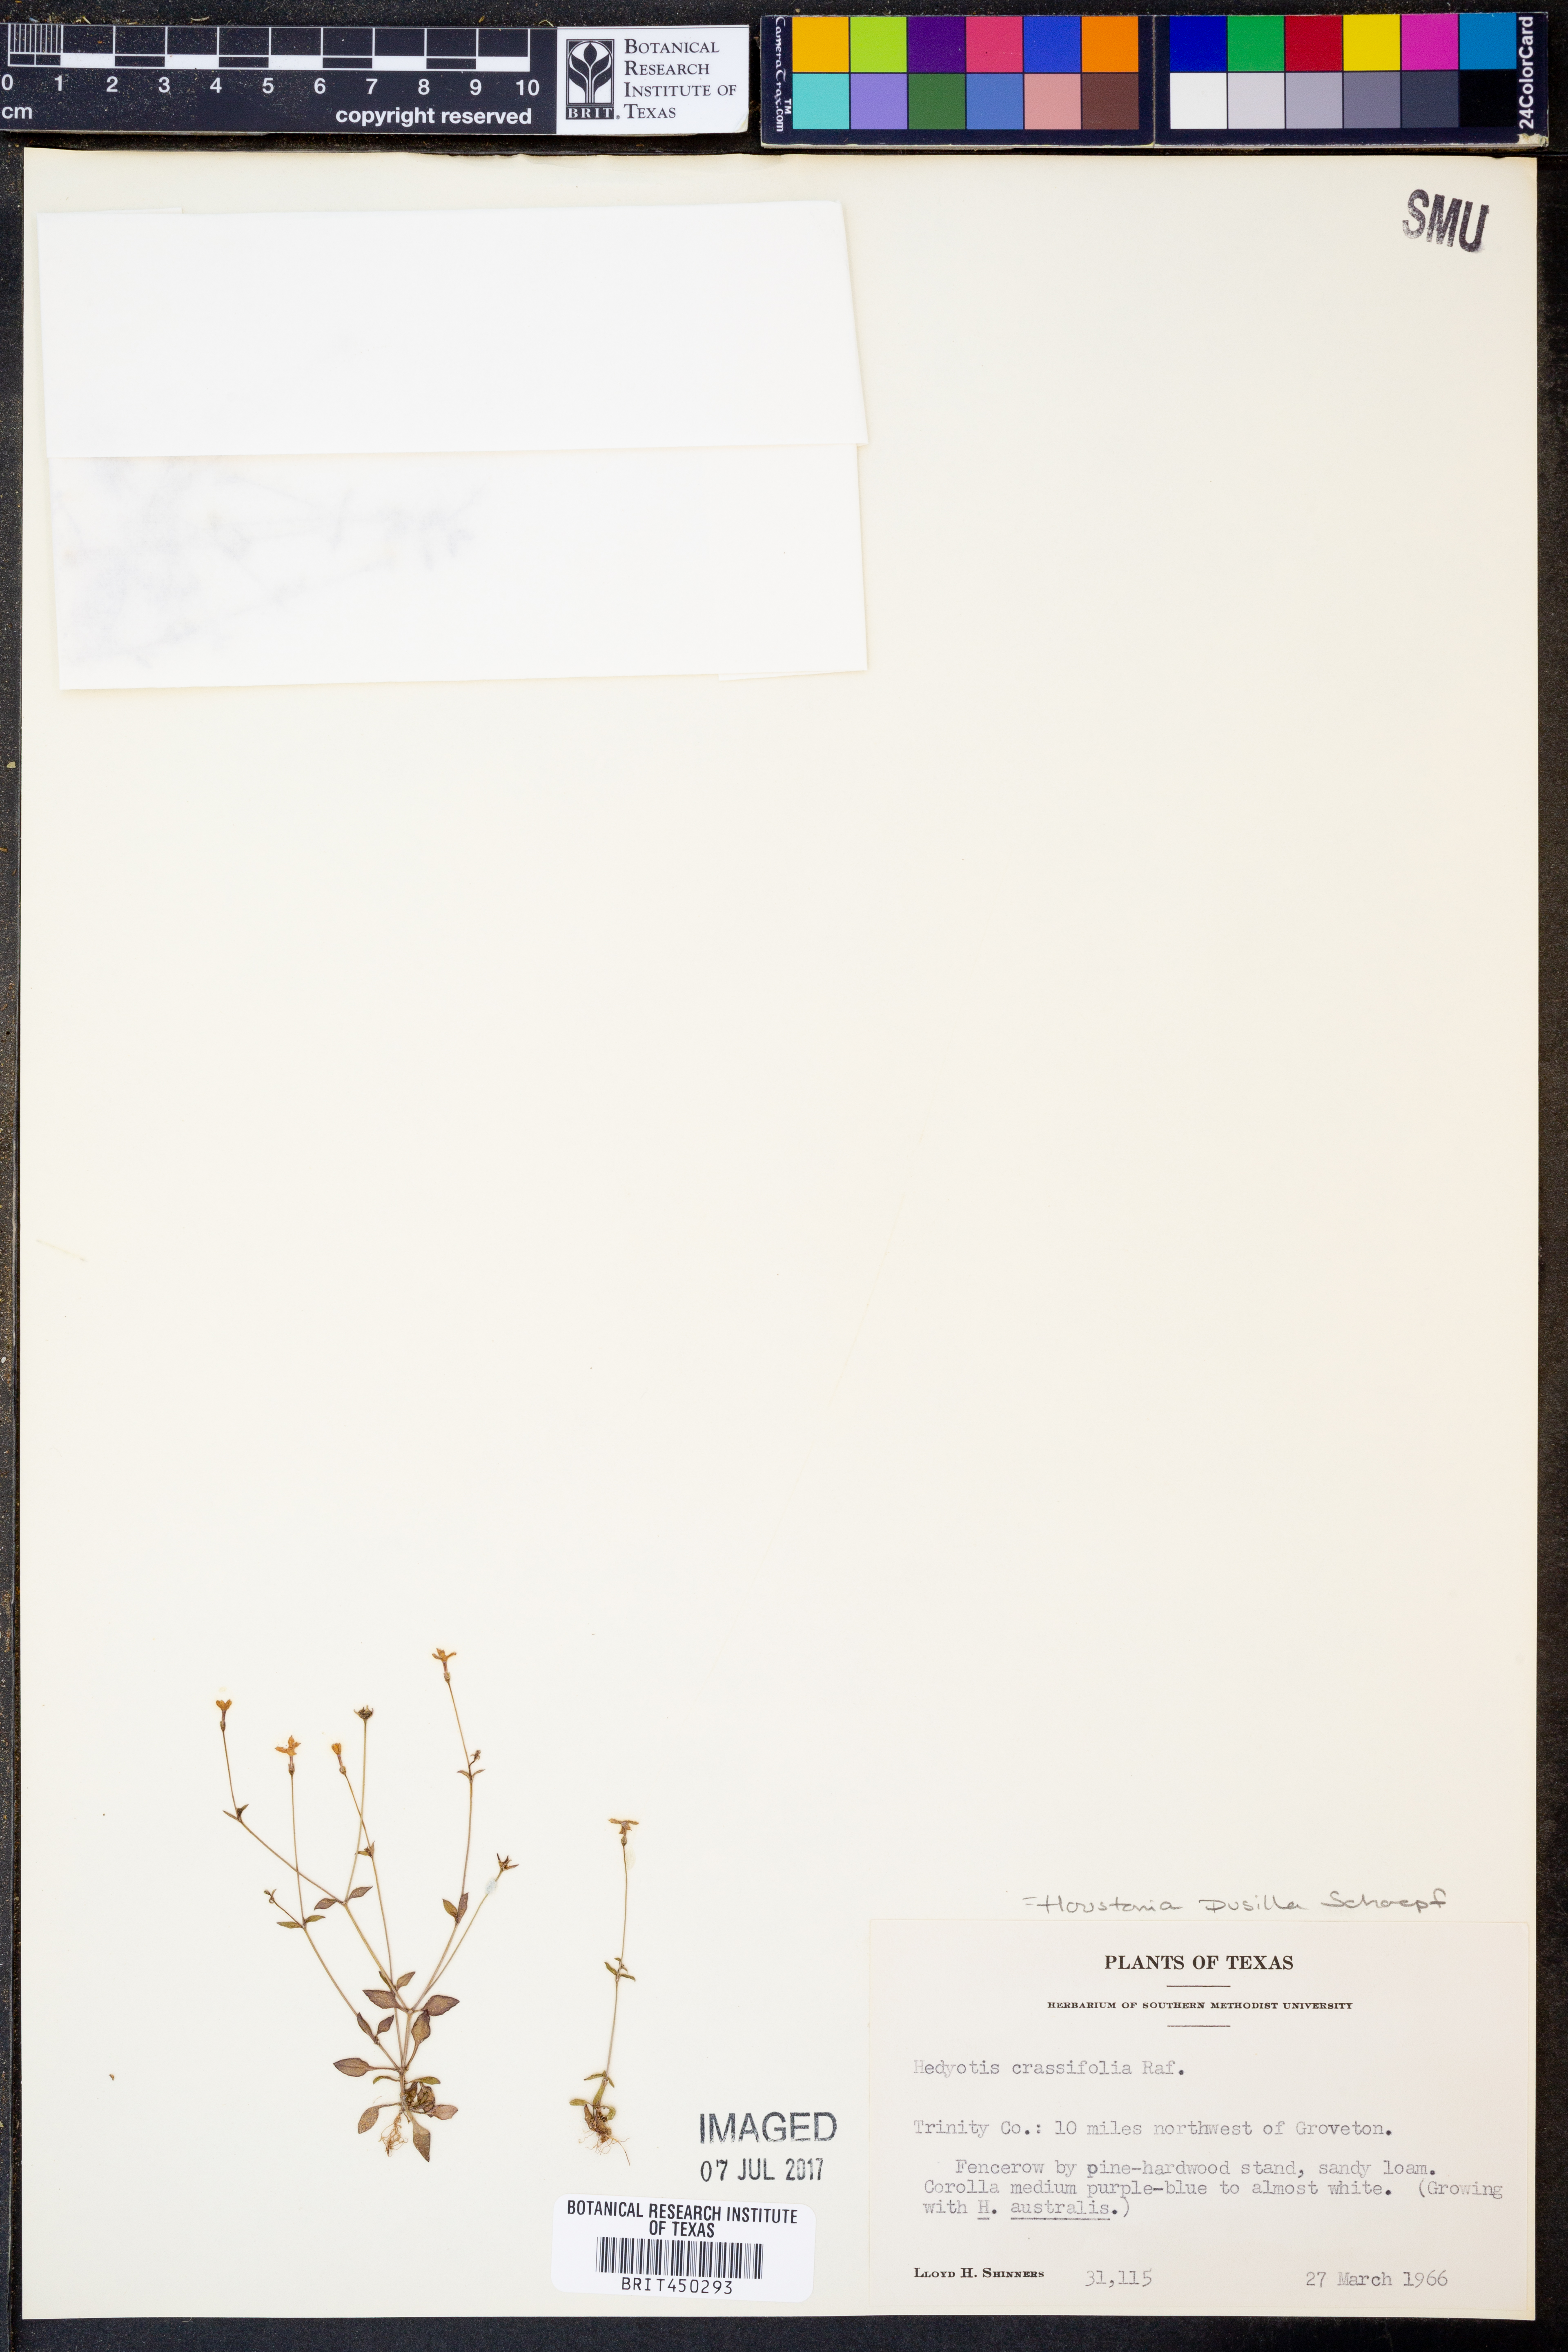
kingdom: Plantae
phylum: Tracheophyta
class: Magnoliopsida
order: Gentianales
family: Rubiaceae
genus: Houstonia
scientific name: Houstonia pusilla
